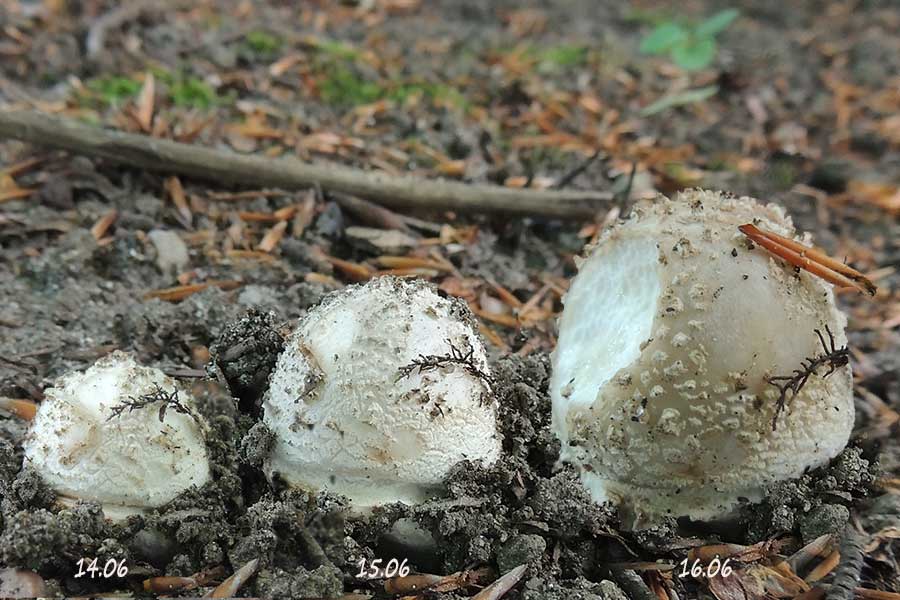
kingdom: Fungi
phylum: Basidiomycota
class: Agaricomycetes
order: Agaricales
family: Amanitaceae
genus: Amanita
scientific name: Amanita rubescens
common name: rødmende fluesvamp
